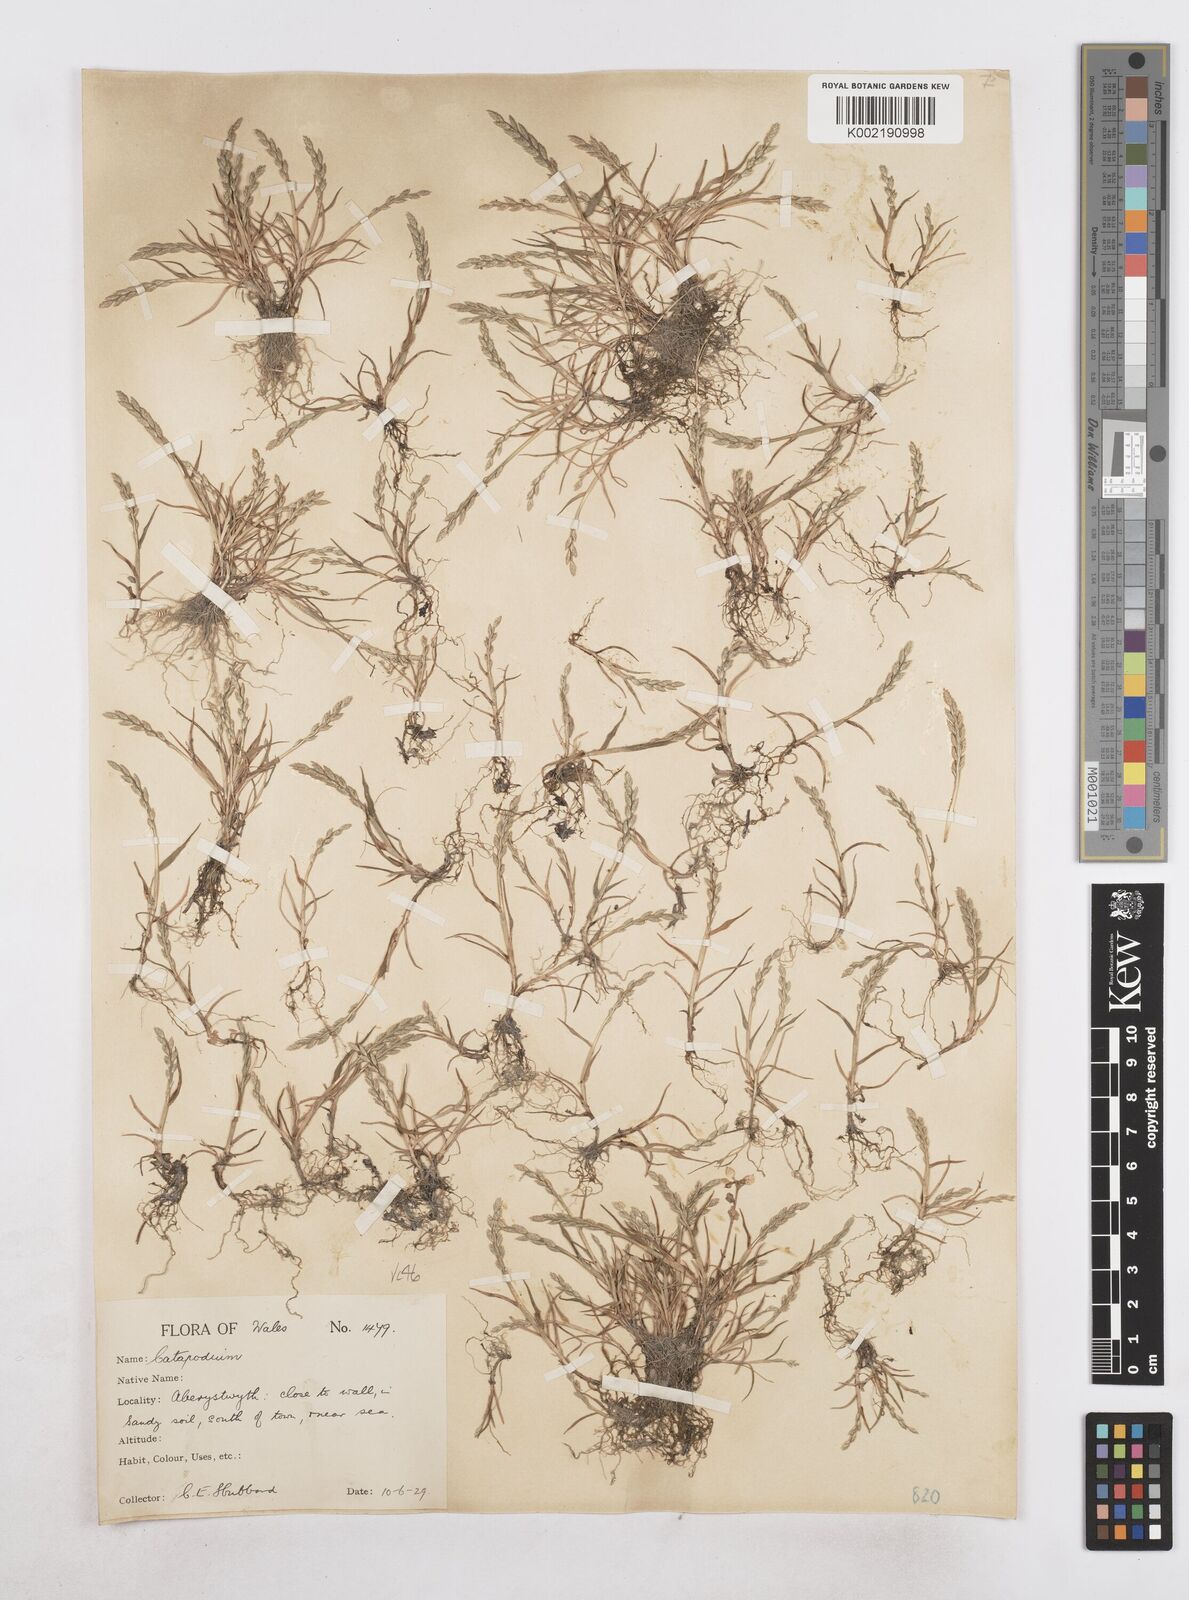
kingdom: Plantae
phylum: Tracheophyta
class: Liliopsida
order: Poales
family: Poaceae
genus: Catapodium
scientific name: Catapodium marinum
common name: Sea fern-grass
